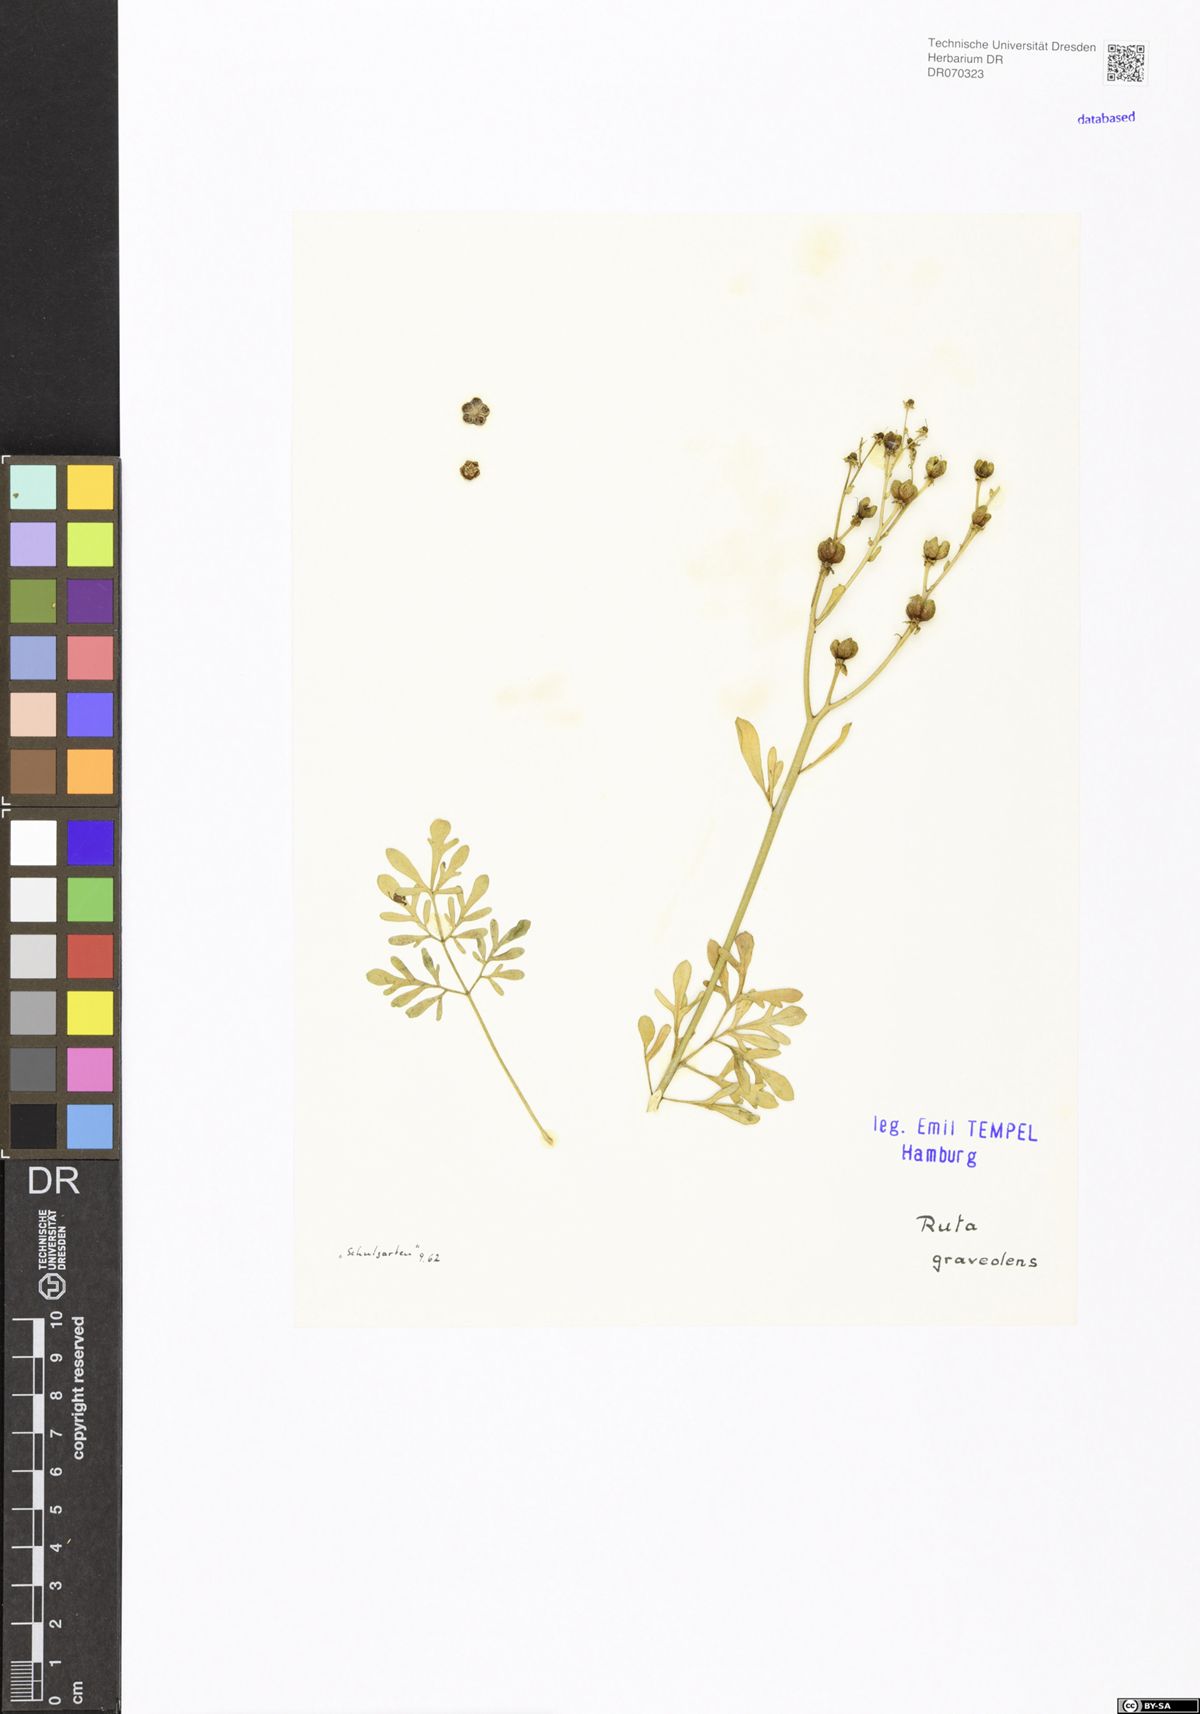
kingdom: Plantae
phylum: Tracheophyta
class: Magnoliopsida
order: Sapindales
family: Rutaceae
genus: Ruta
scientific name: Ruta graveolens
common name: Common rue
